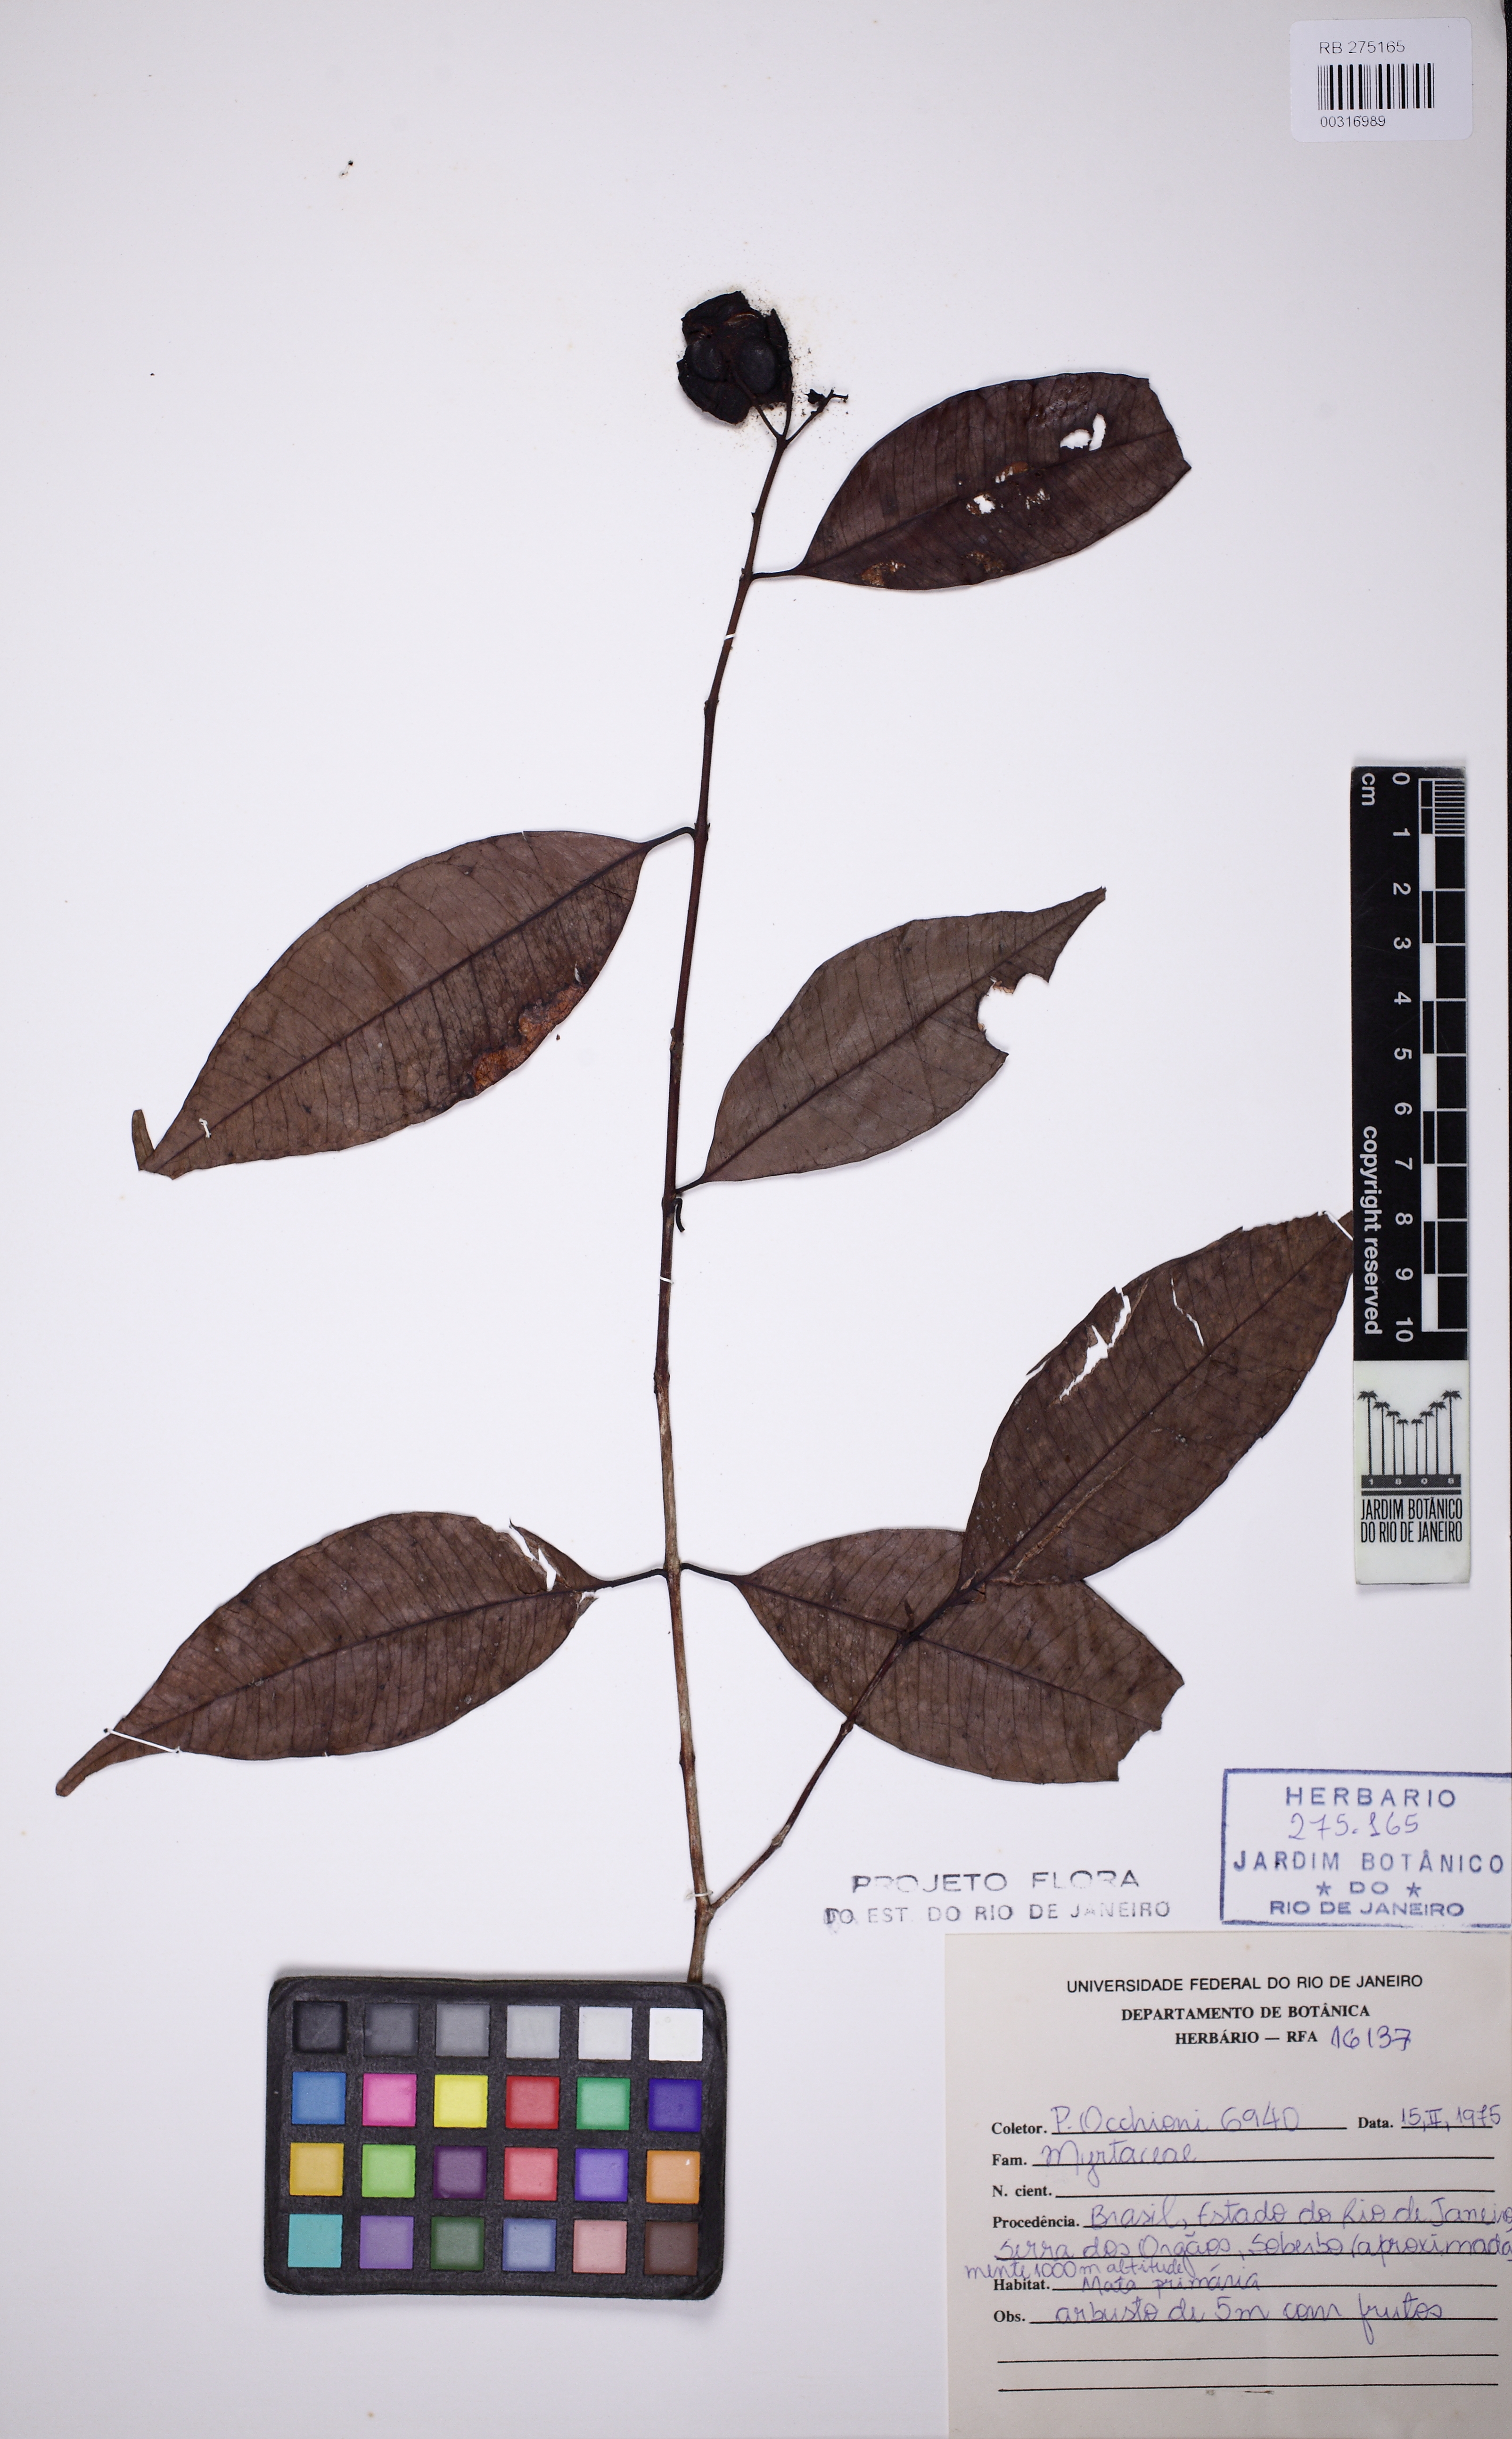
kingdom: Plantae
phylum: Tracheophyta
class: Magnoliopsida
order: Myrtales
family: Myrtaceae
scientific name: Myrtaceae
